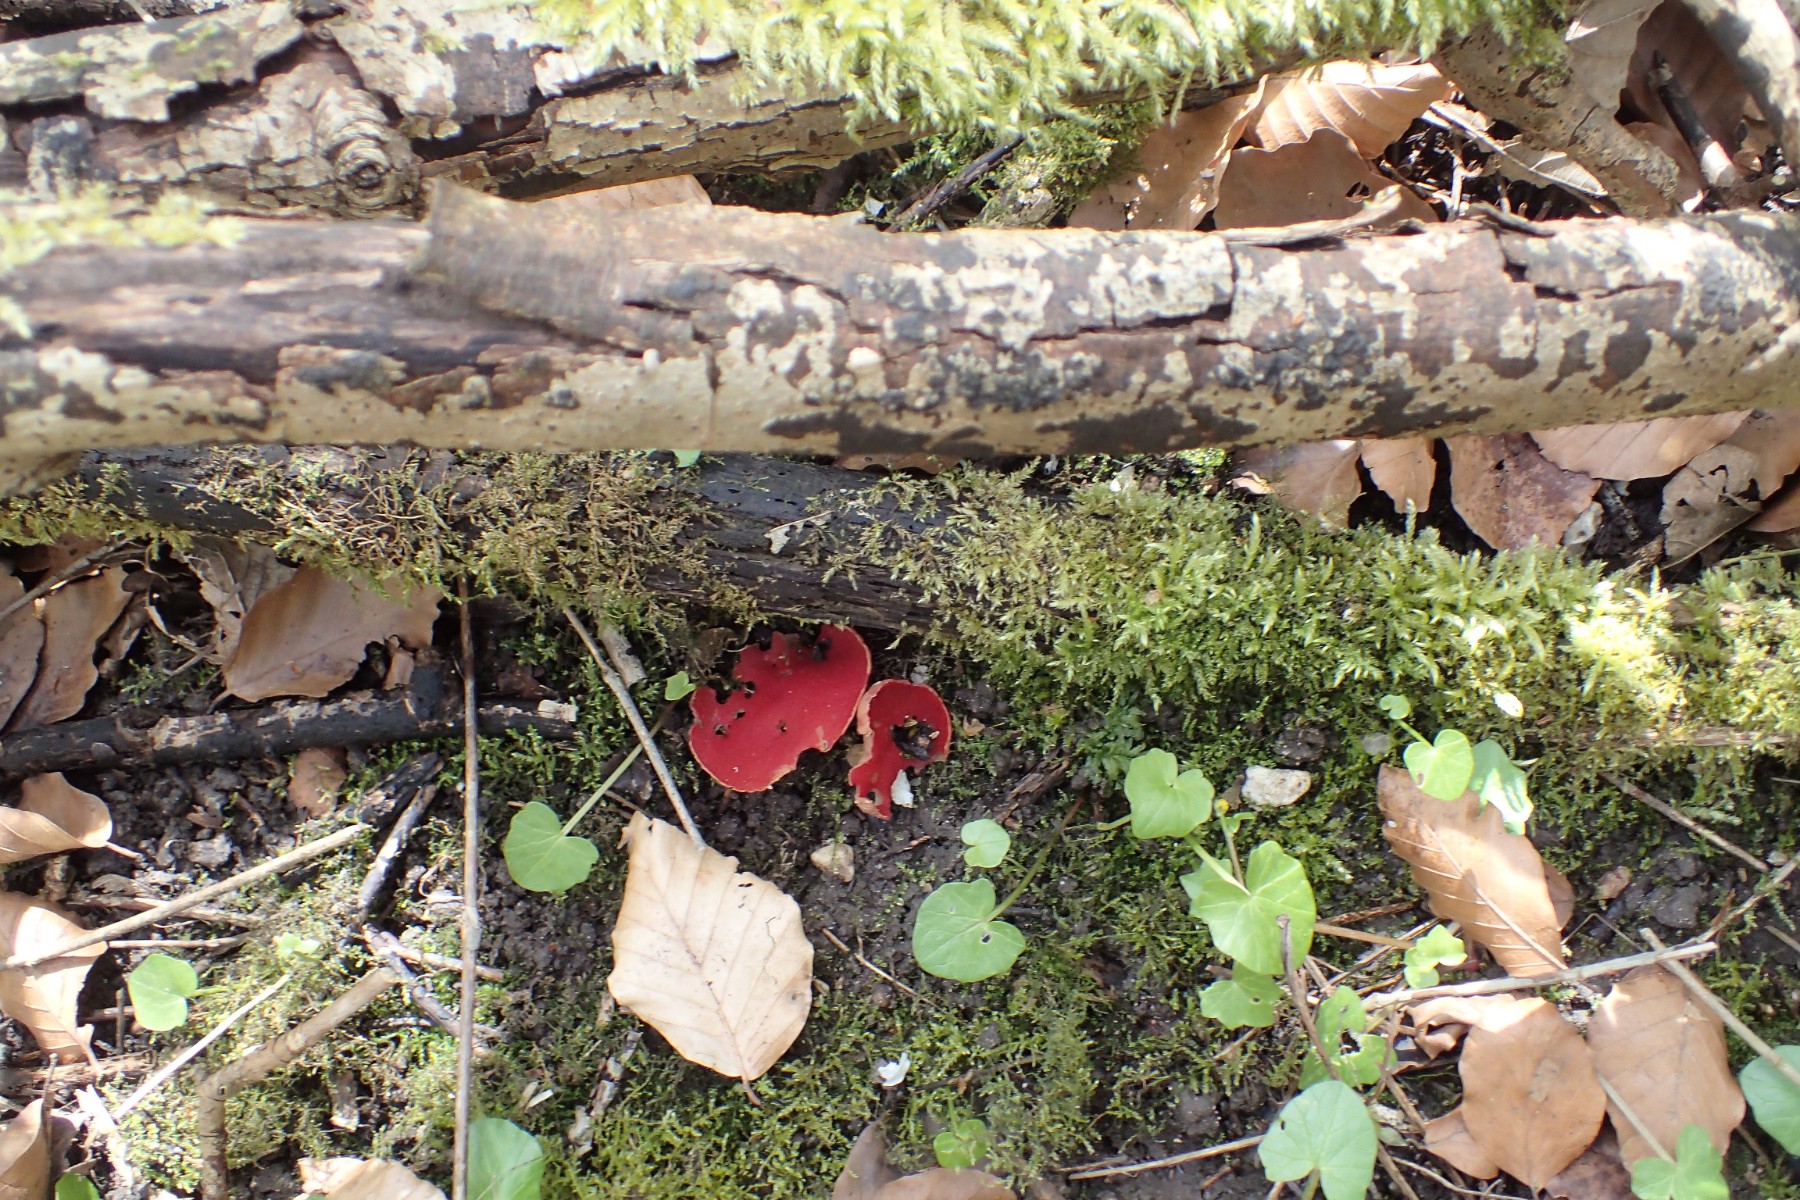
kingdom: Fungi
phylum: Ascomycota
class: Pezizomycetes
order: Pezizales
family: Sarcoscyphaceae
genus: Sarcoscypha
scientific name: Sarcoscypha austriaca
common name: krølhåret pragtbæger
